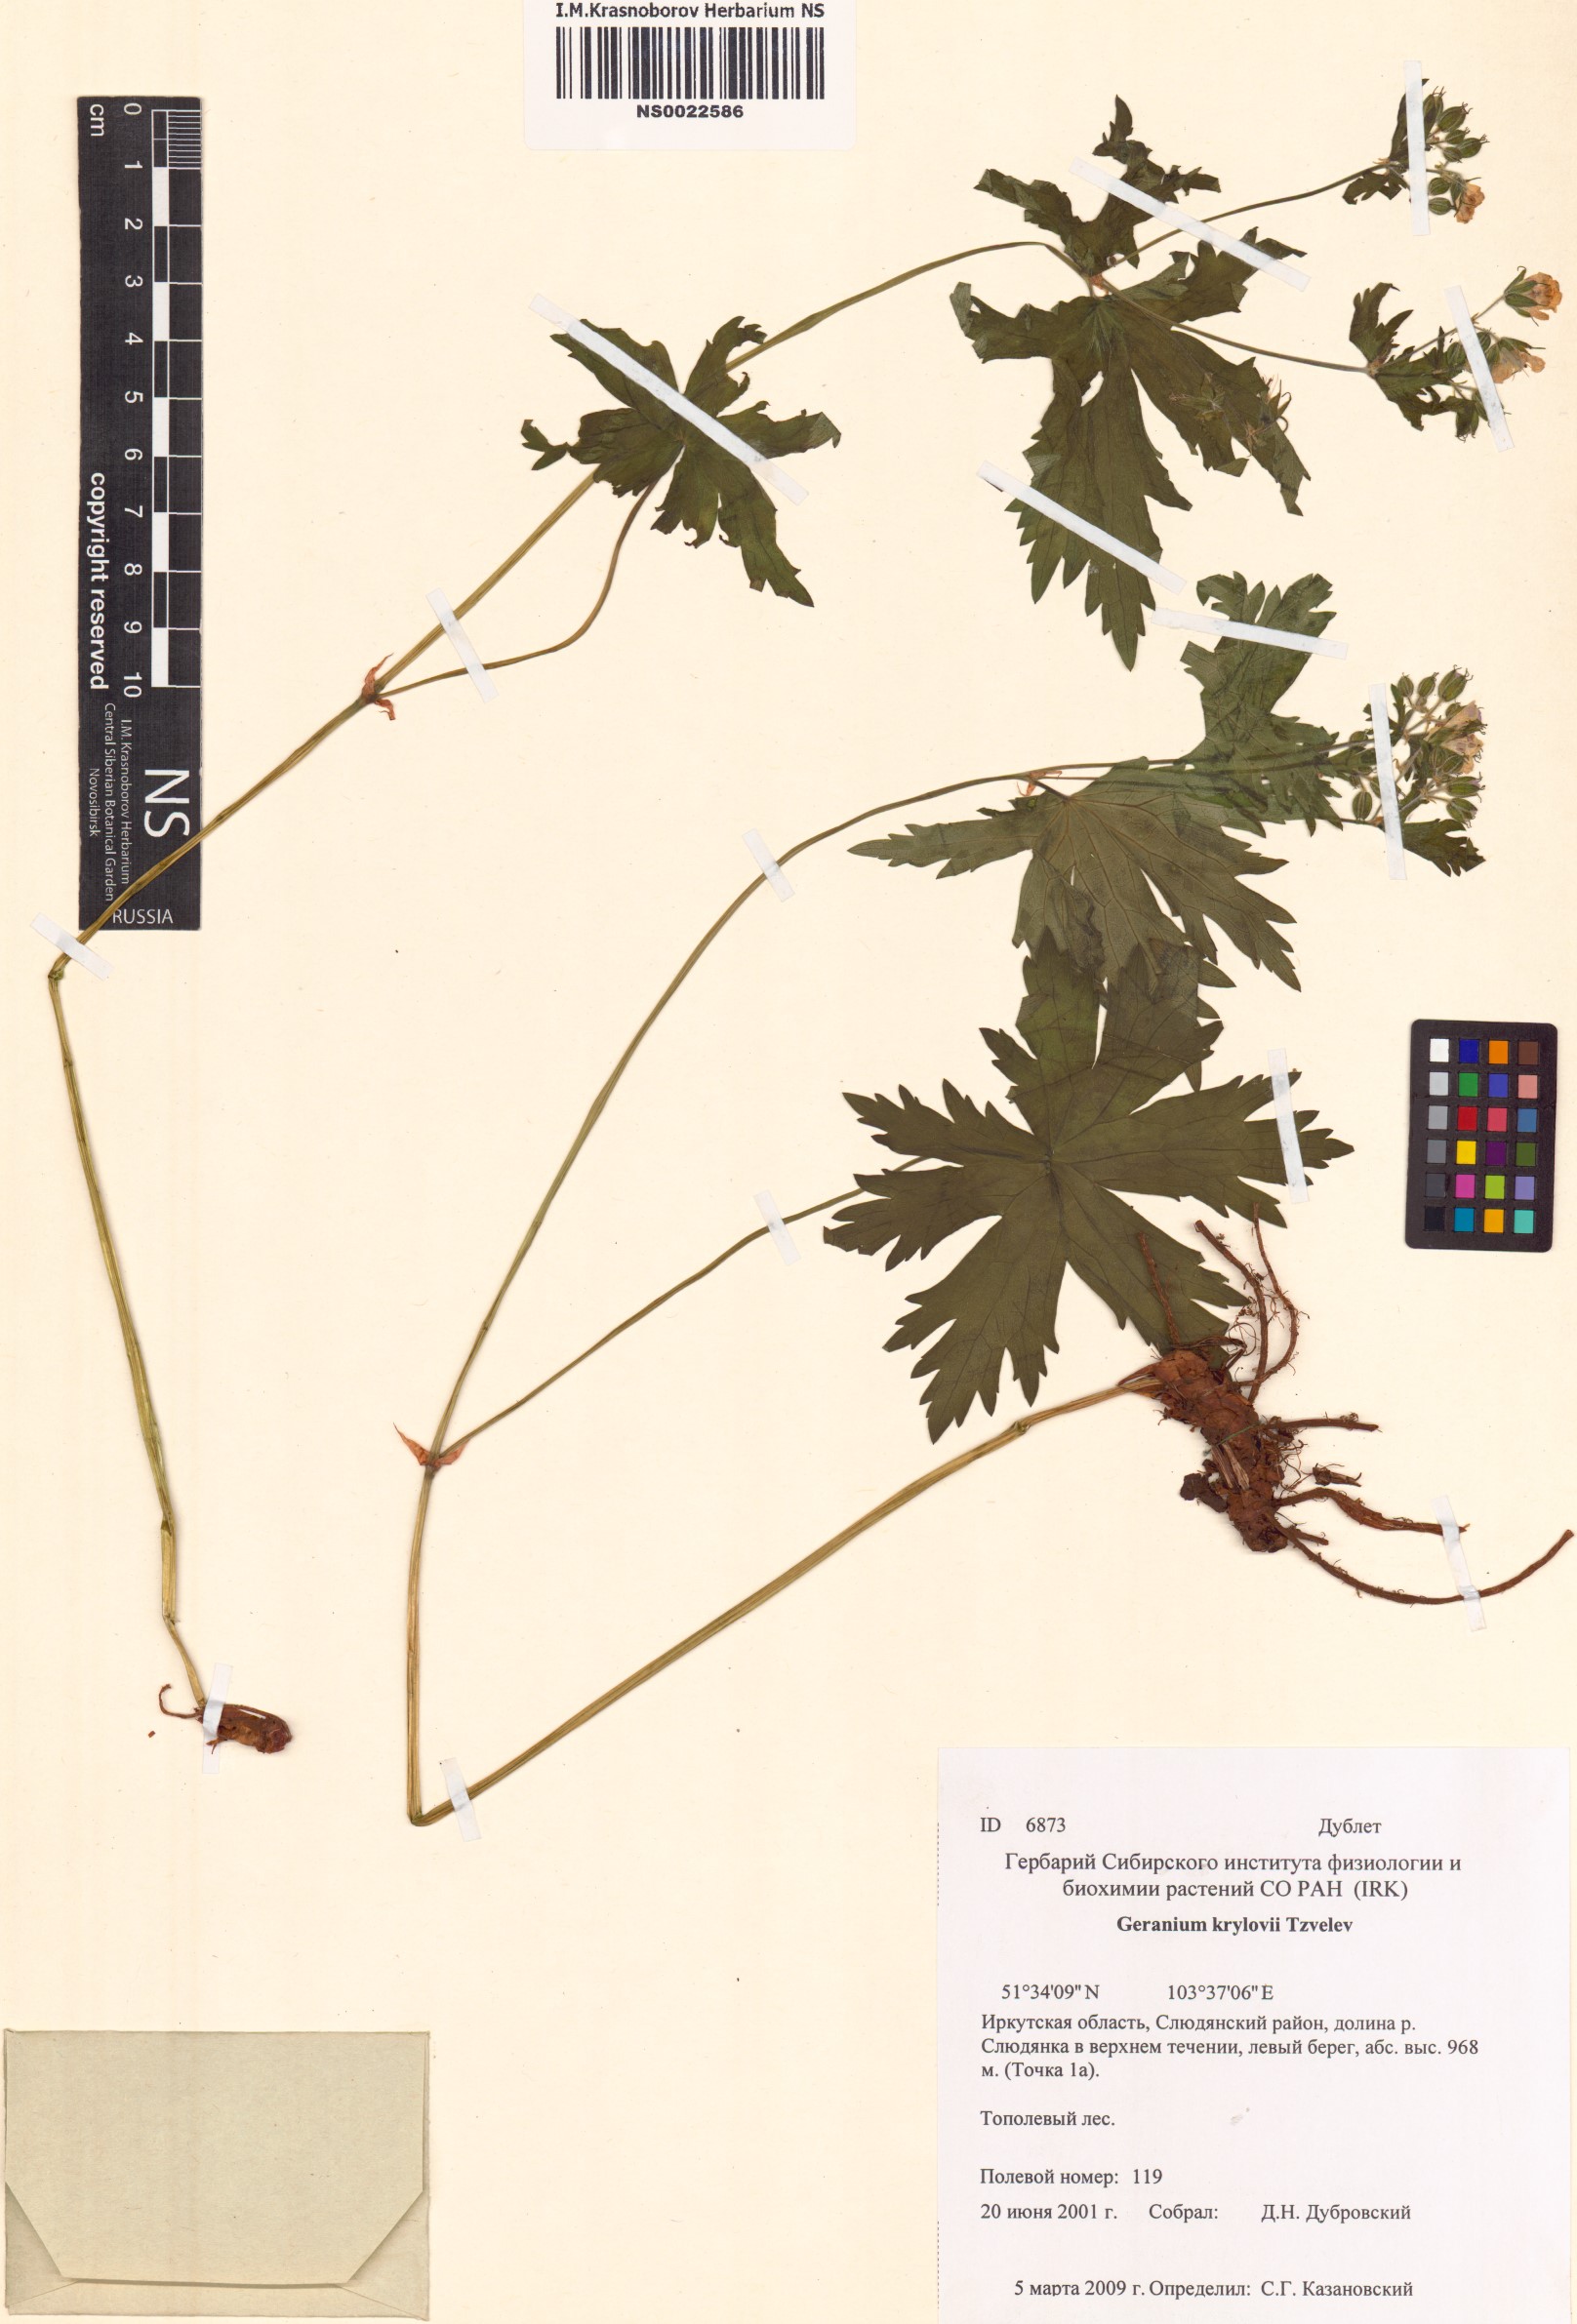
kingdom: Plantae
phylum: Tracheophyta
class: Magnoliopsida
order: Geraniales
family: Geraniaceae
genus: Geranium
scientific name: Geranium sylvaticum
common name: Wood crane's-bill
